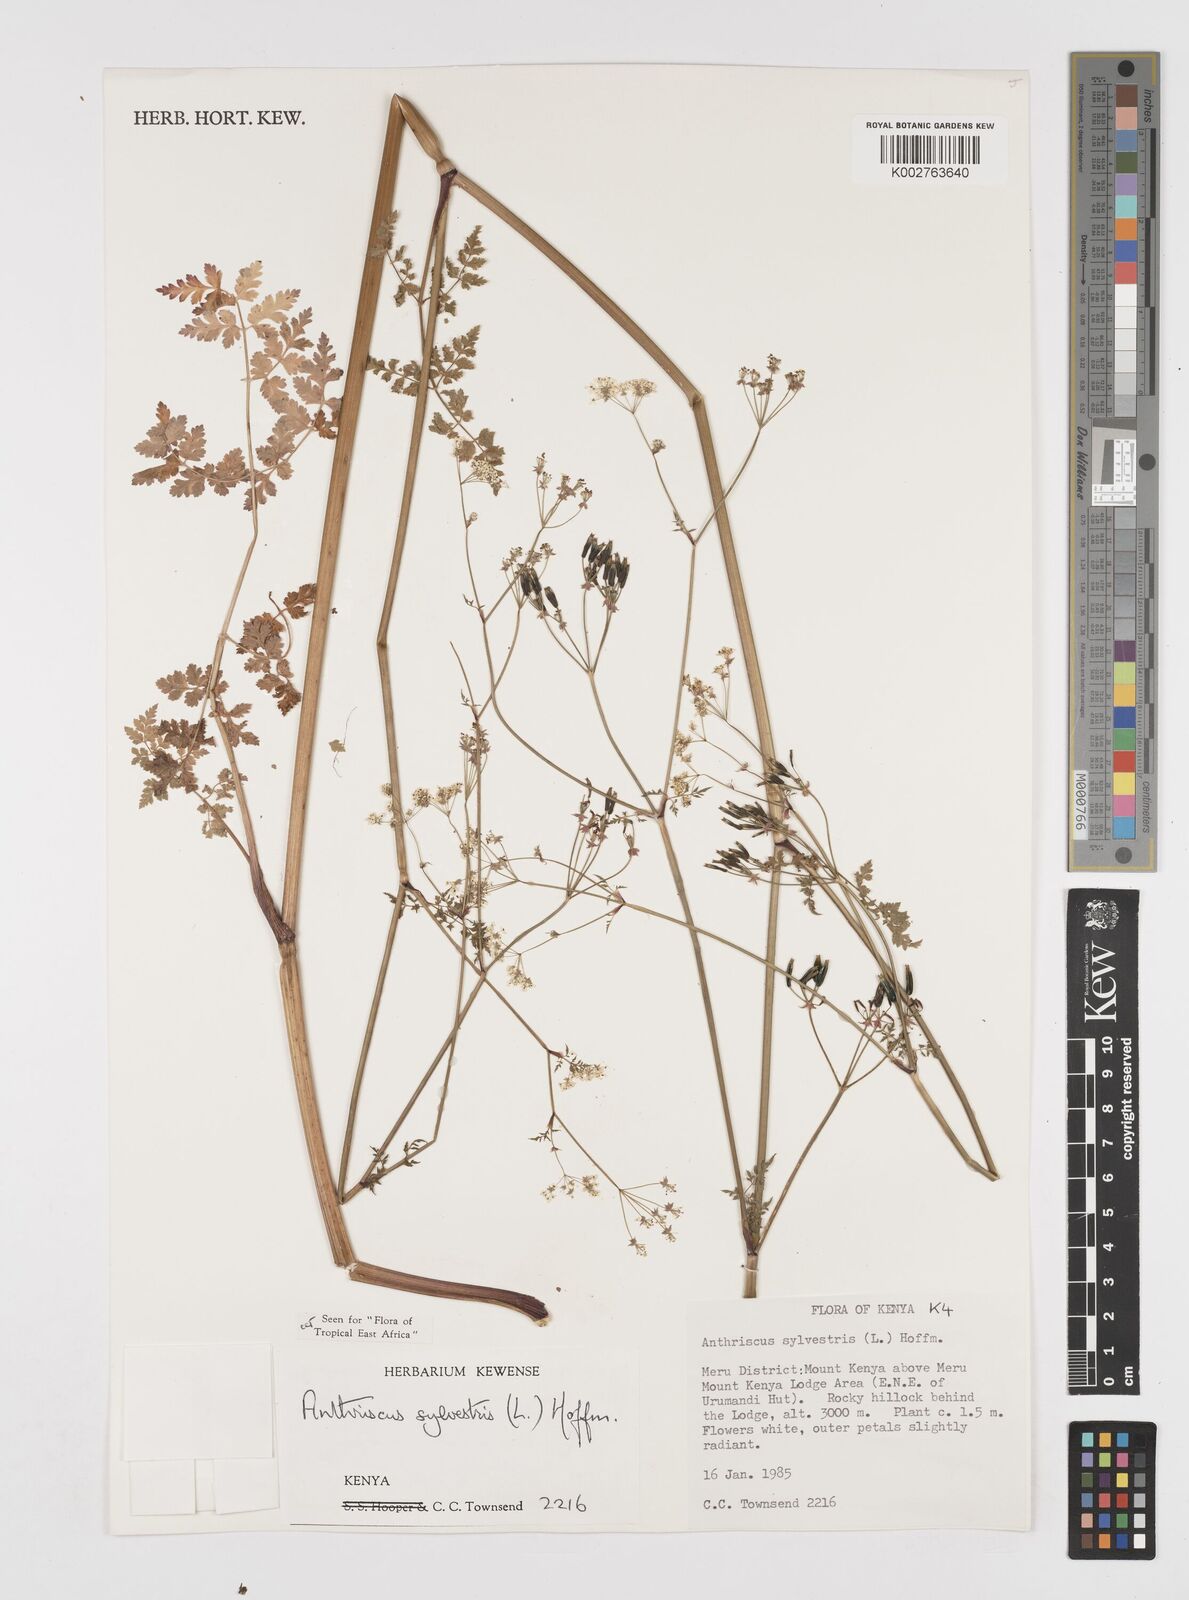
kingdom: Plantae
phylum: Tracheophyta
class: Magnoliopsida
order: Apiales
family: Apiaceae
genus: Anthriscus
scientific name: Anthriscus sylvestris
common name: Cow parsley
